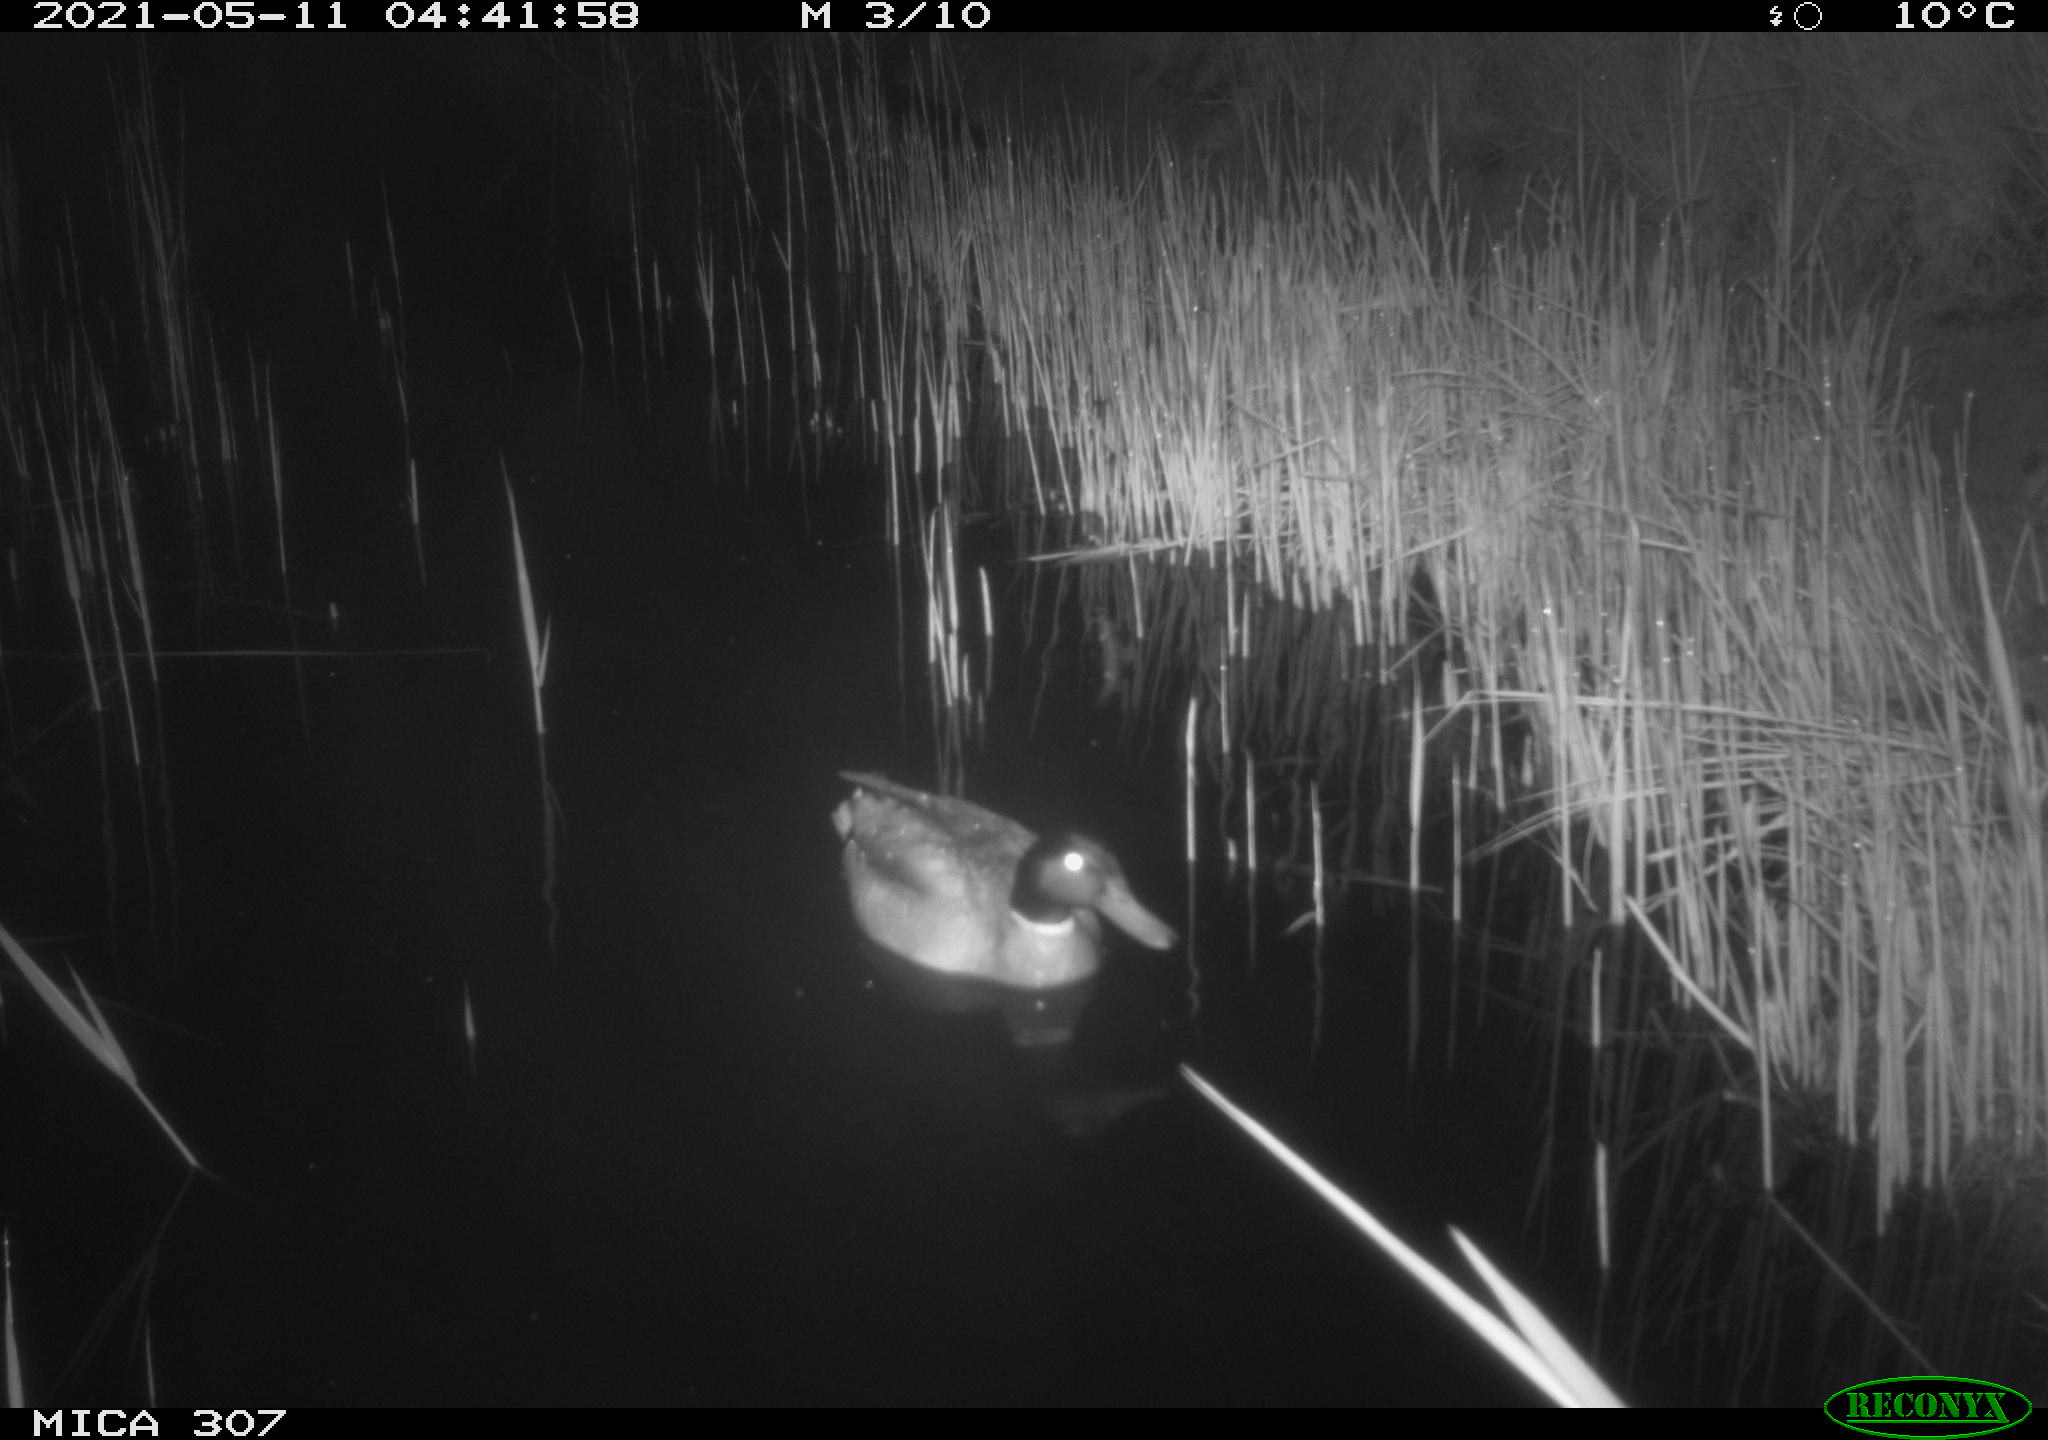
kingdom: Animalia
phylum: Chordata
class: Aves
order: Gruiformes
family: Rallidae
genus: Gallinula
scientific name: Gallinula chloropus
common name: Common moorhen
